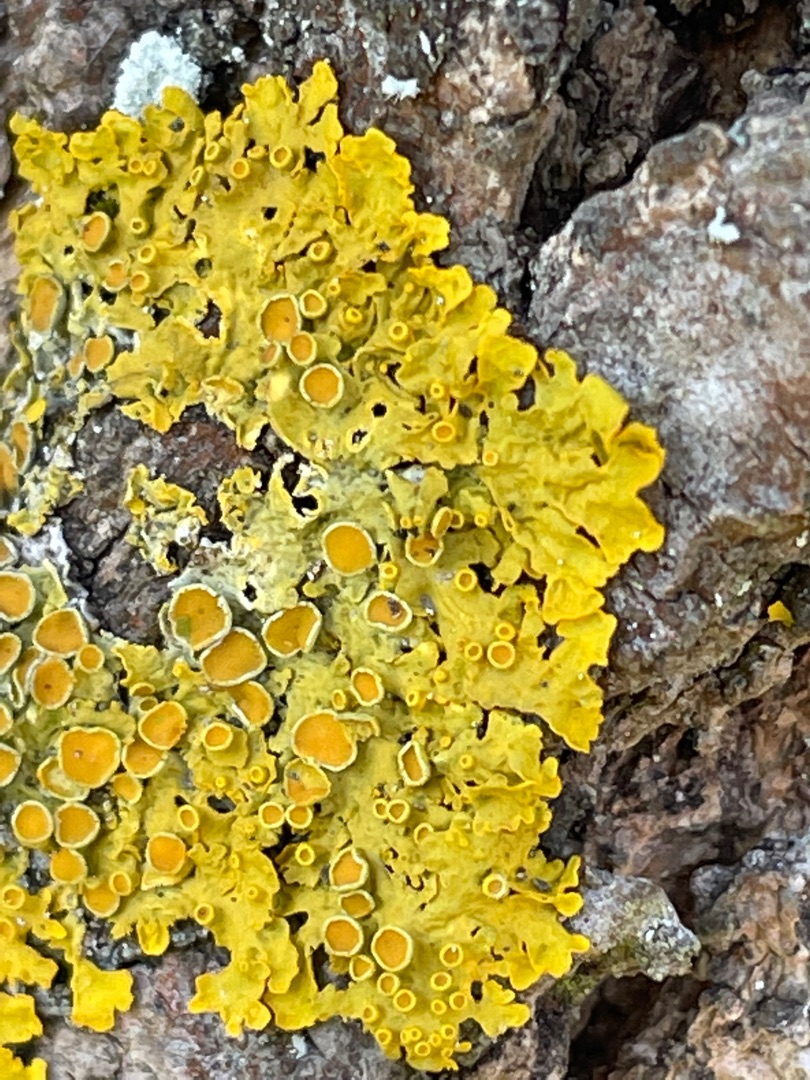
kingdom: Fungi
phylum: Ascomycota
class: Lecanoromycetes
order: Teloschistales
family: Teloschistaceae
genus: Xanthoria
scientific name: Xanthoria parietina
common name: Almindelig væggelav
